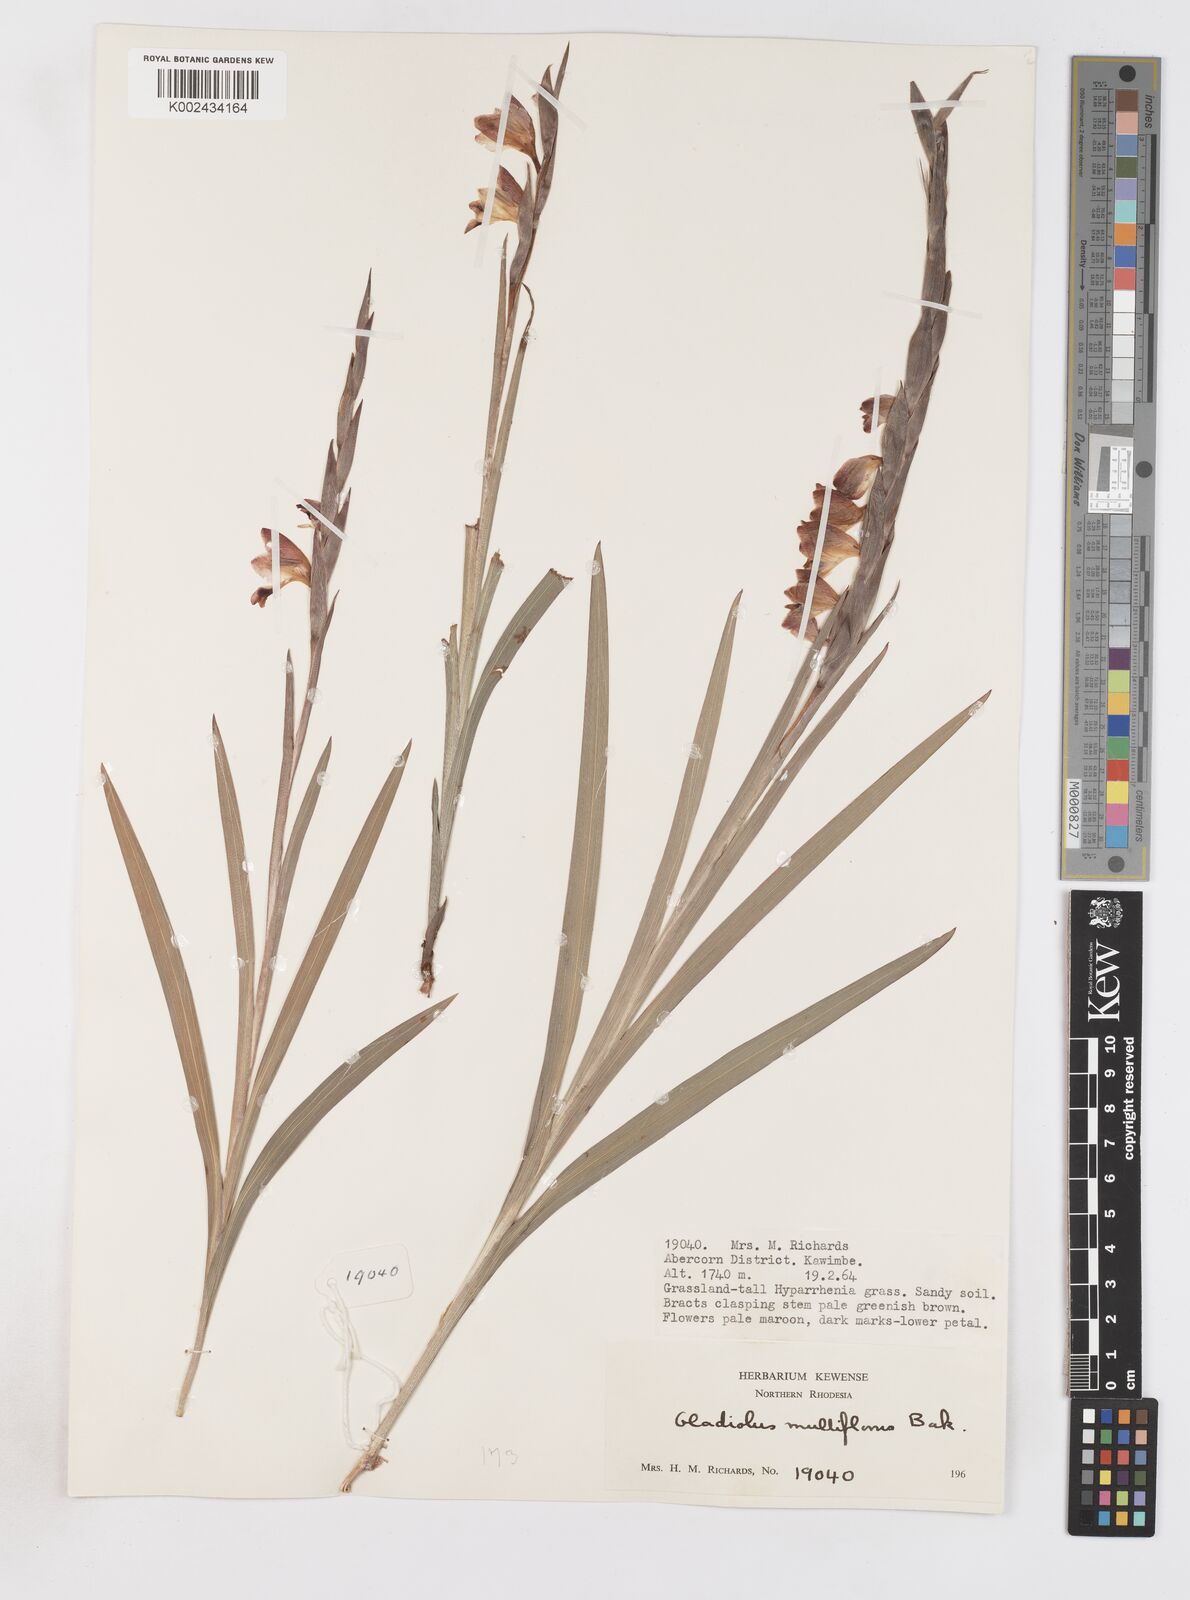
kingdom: Plantae
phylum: Tracheophyta
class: Liliopsida
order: Asparagales
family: Iridaceae
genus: Gladiolus
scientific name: Gladiolus gregarius
